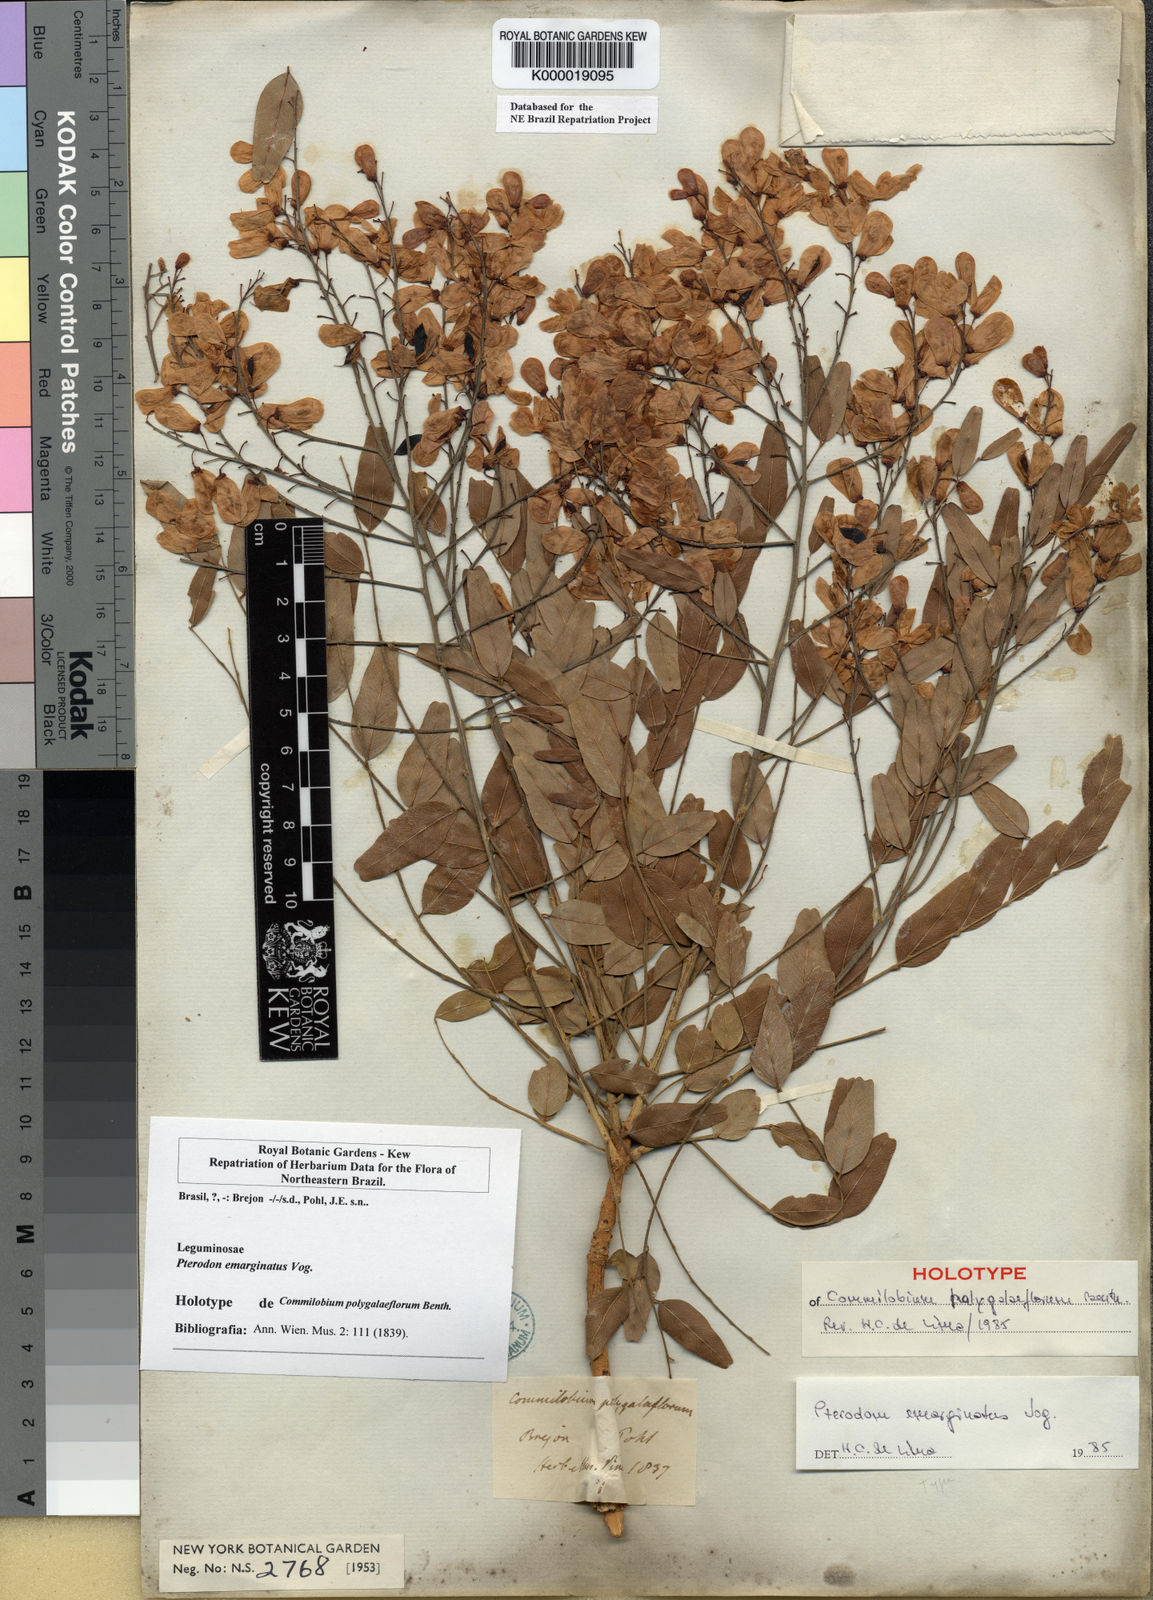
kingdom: Plantae
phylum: Tracheophyta
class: Magnoliopsida
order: Fabales
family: Fabaceae
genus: Pterodon
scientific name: Pterodon emarginatus
